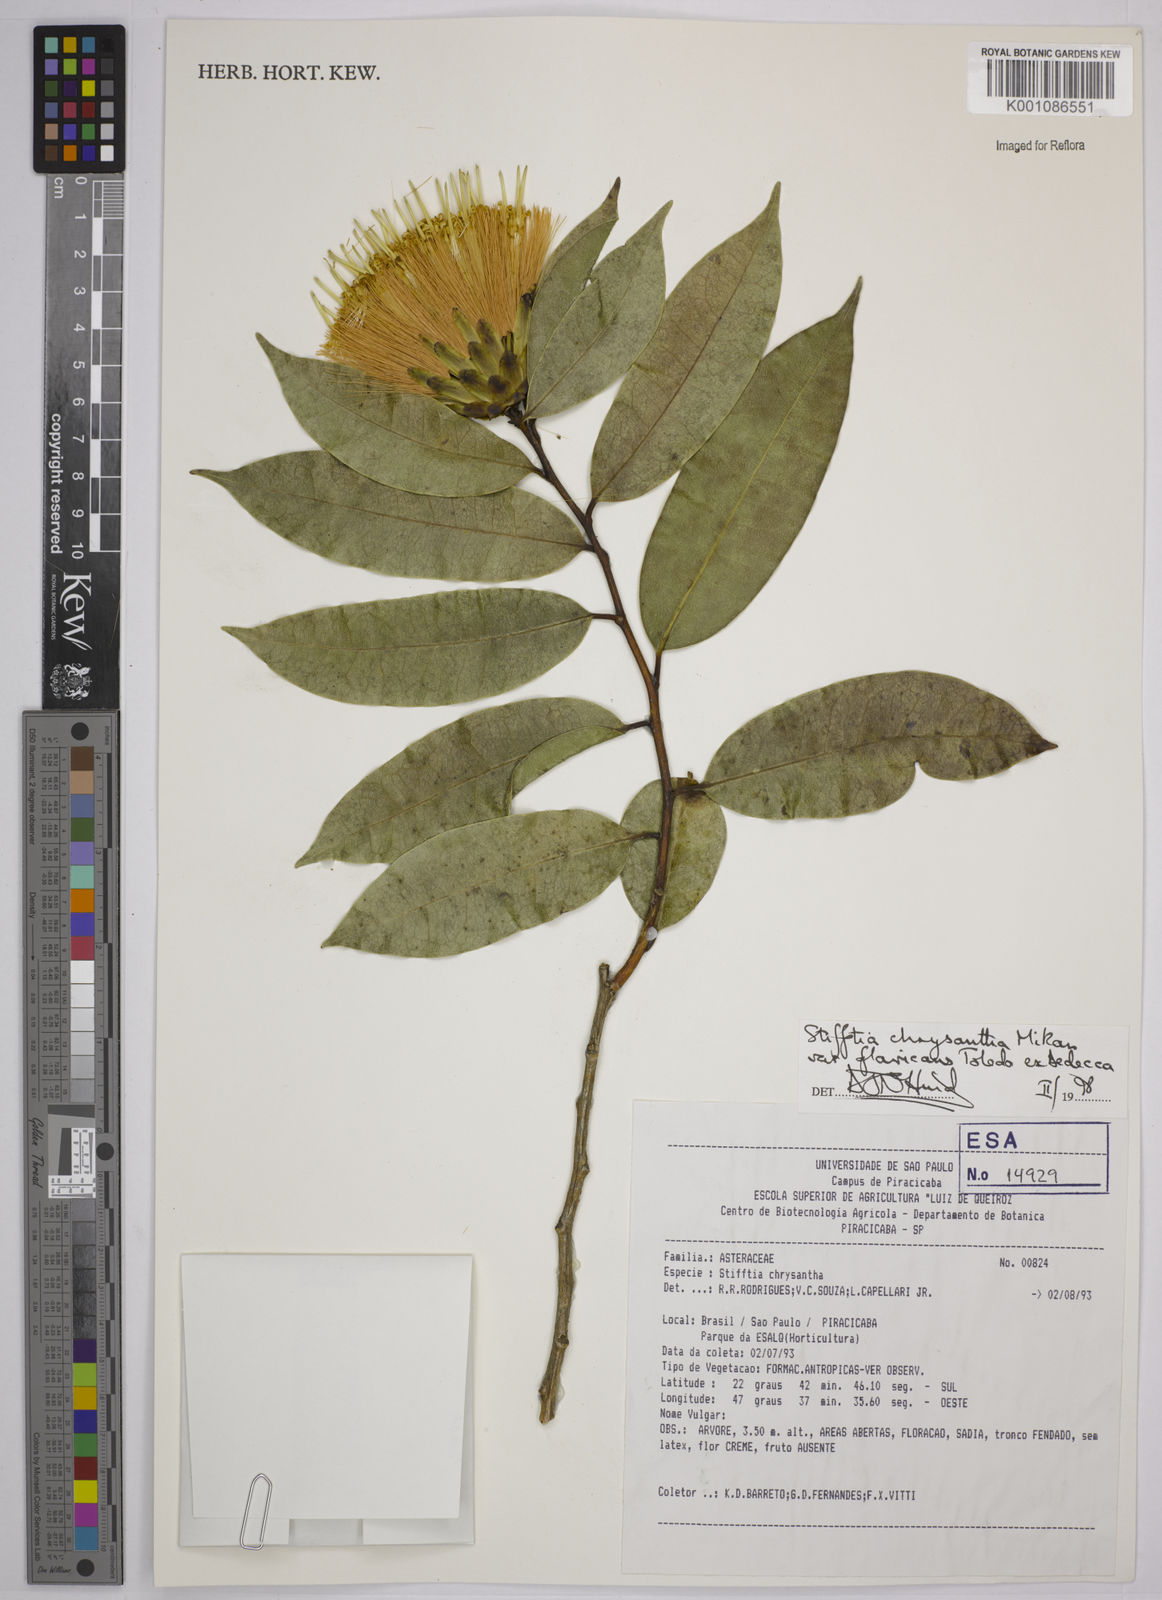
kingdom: Plantae
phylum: Tracheophyta
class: Magnoliopsida
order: Asterales
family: Asteraceae
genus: Stifftia
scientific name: Stifftia chrysantha
